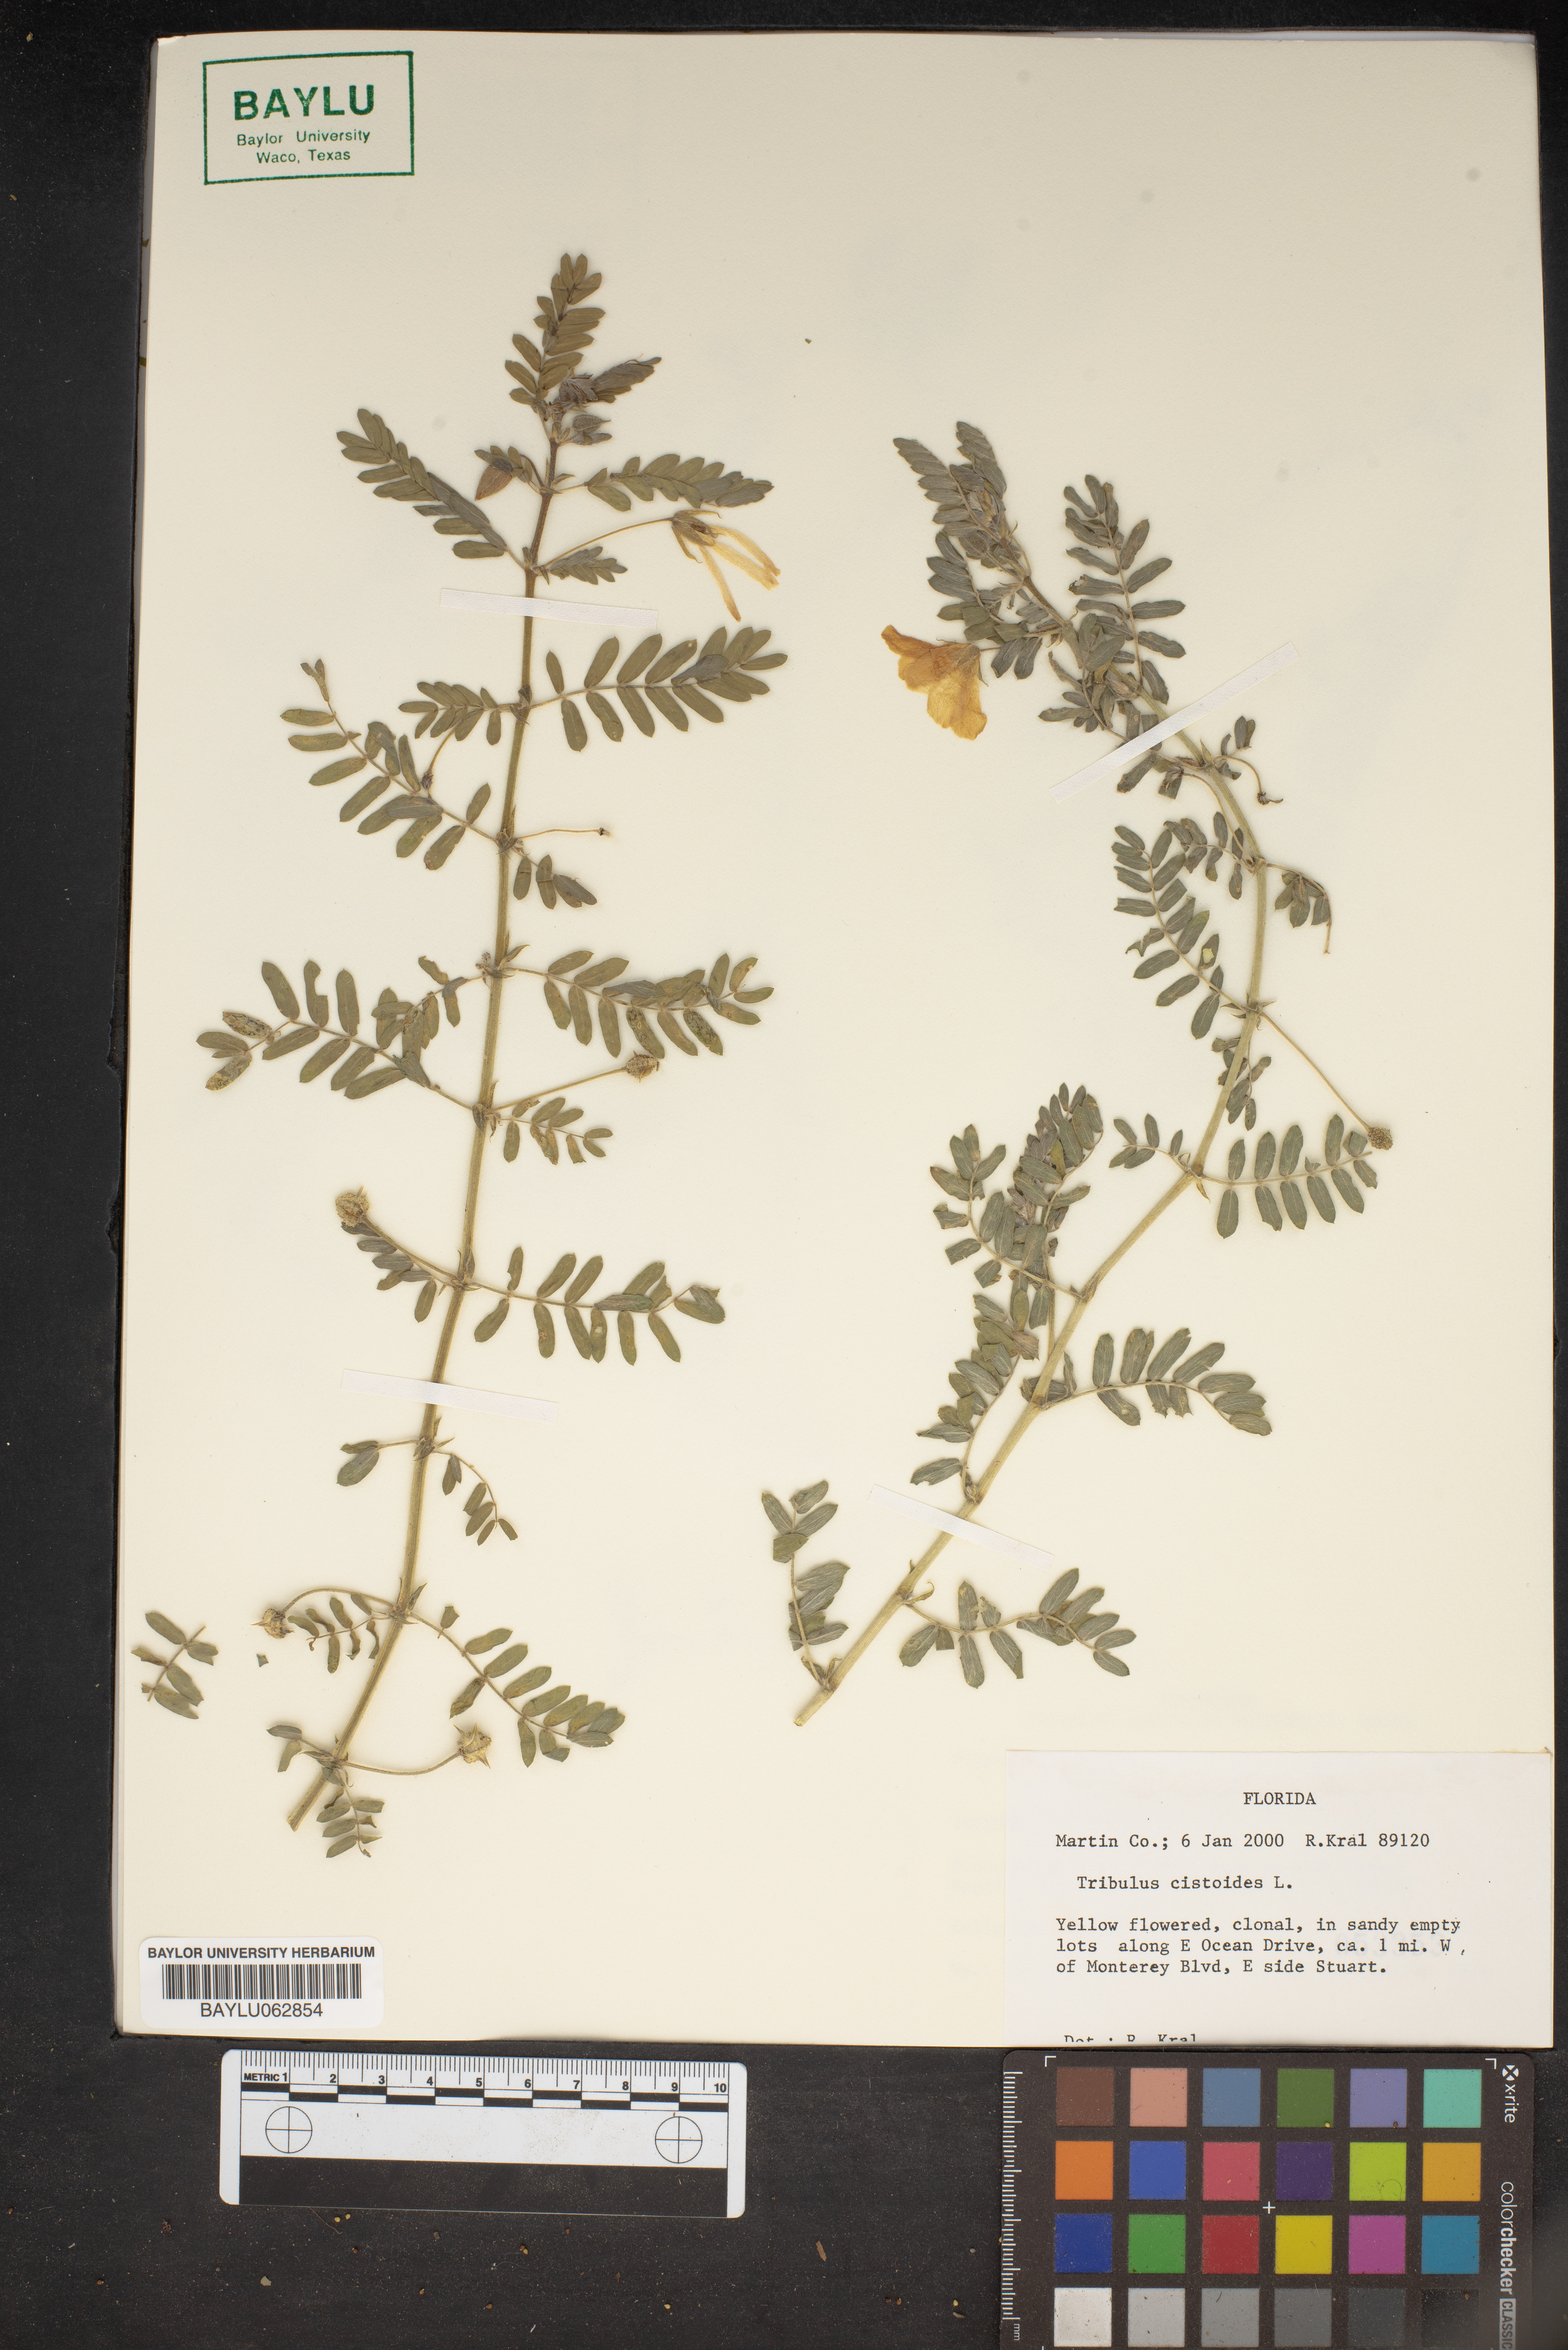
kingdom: Plantae
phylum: Tracheophyta
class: Magnoliopsida
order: Zygophyllales
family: Zygophyllaceae
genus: Tribulus
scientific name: Tribulus cistoides
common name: Jamaican feverplant
